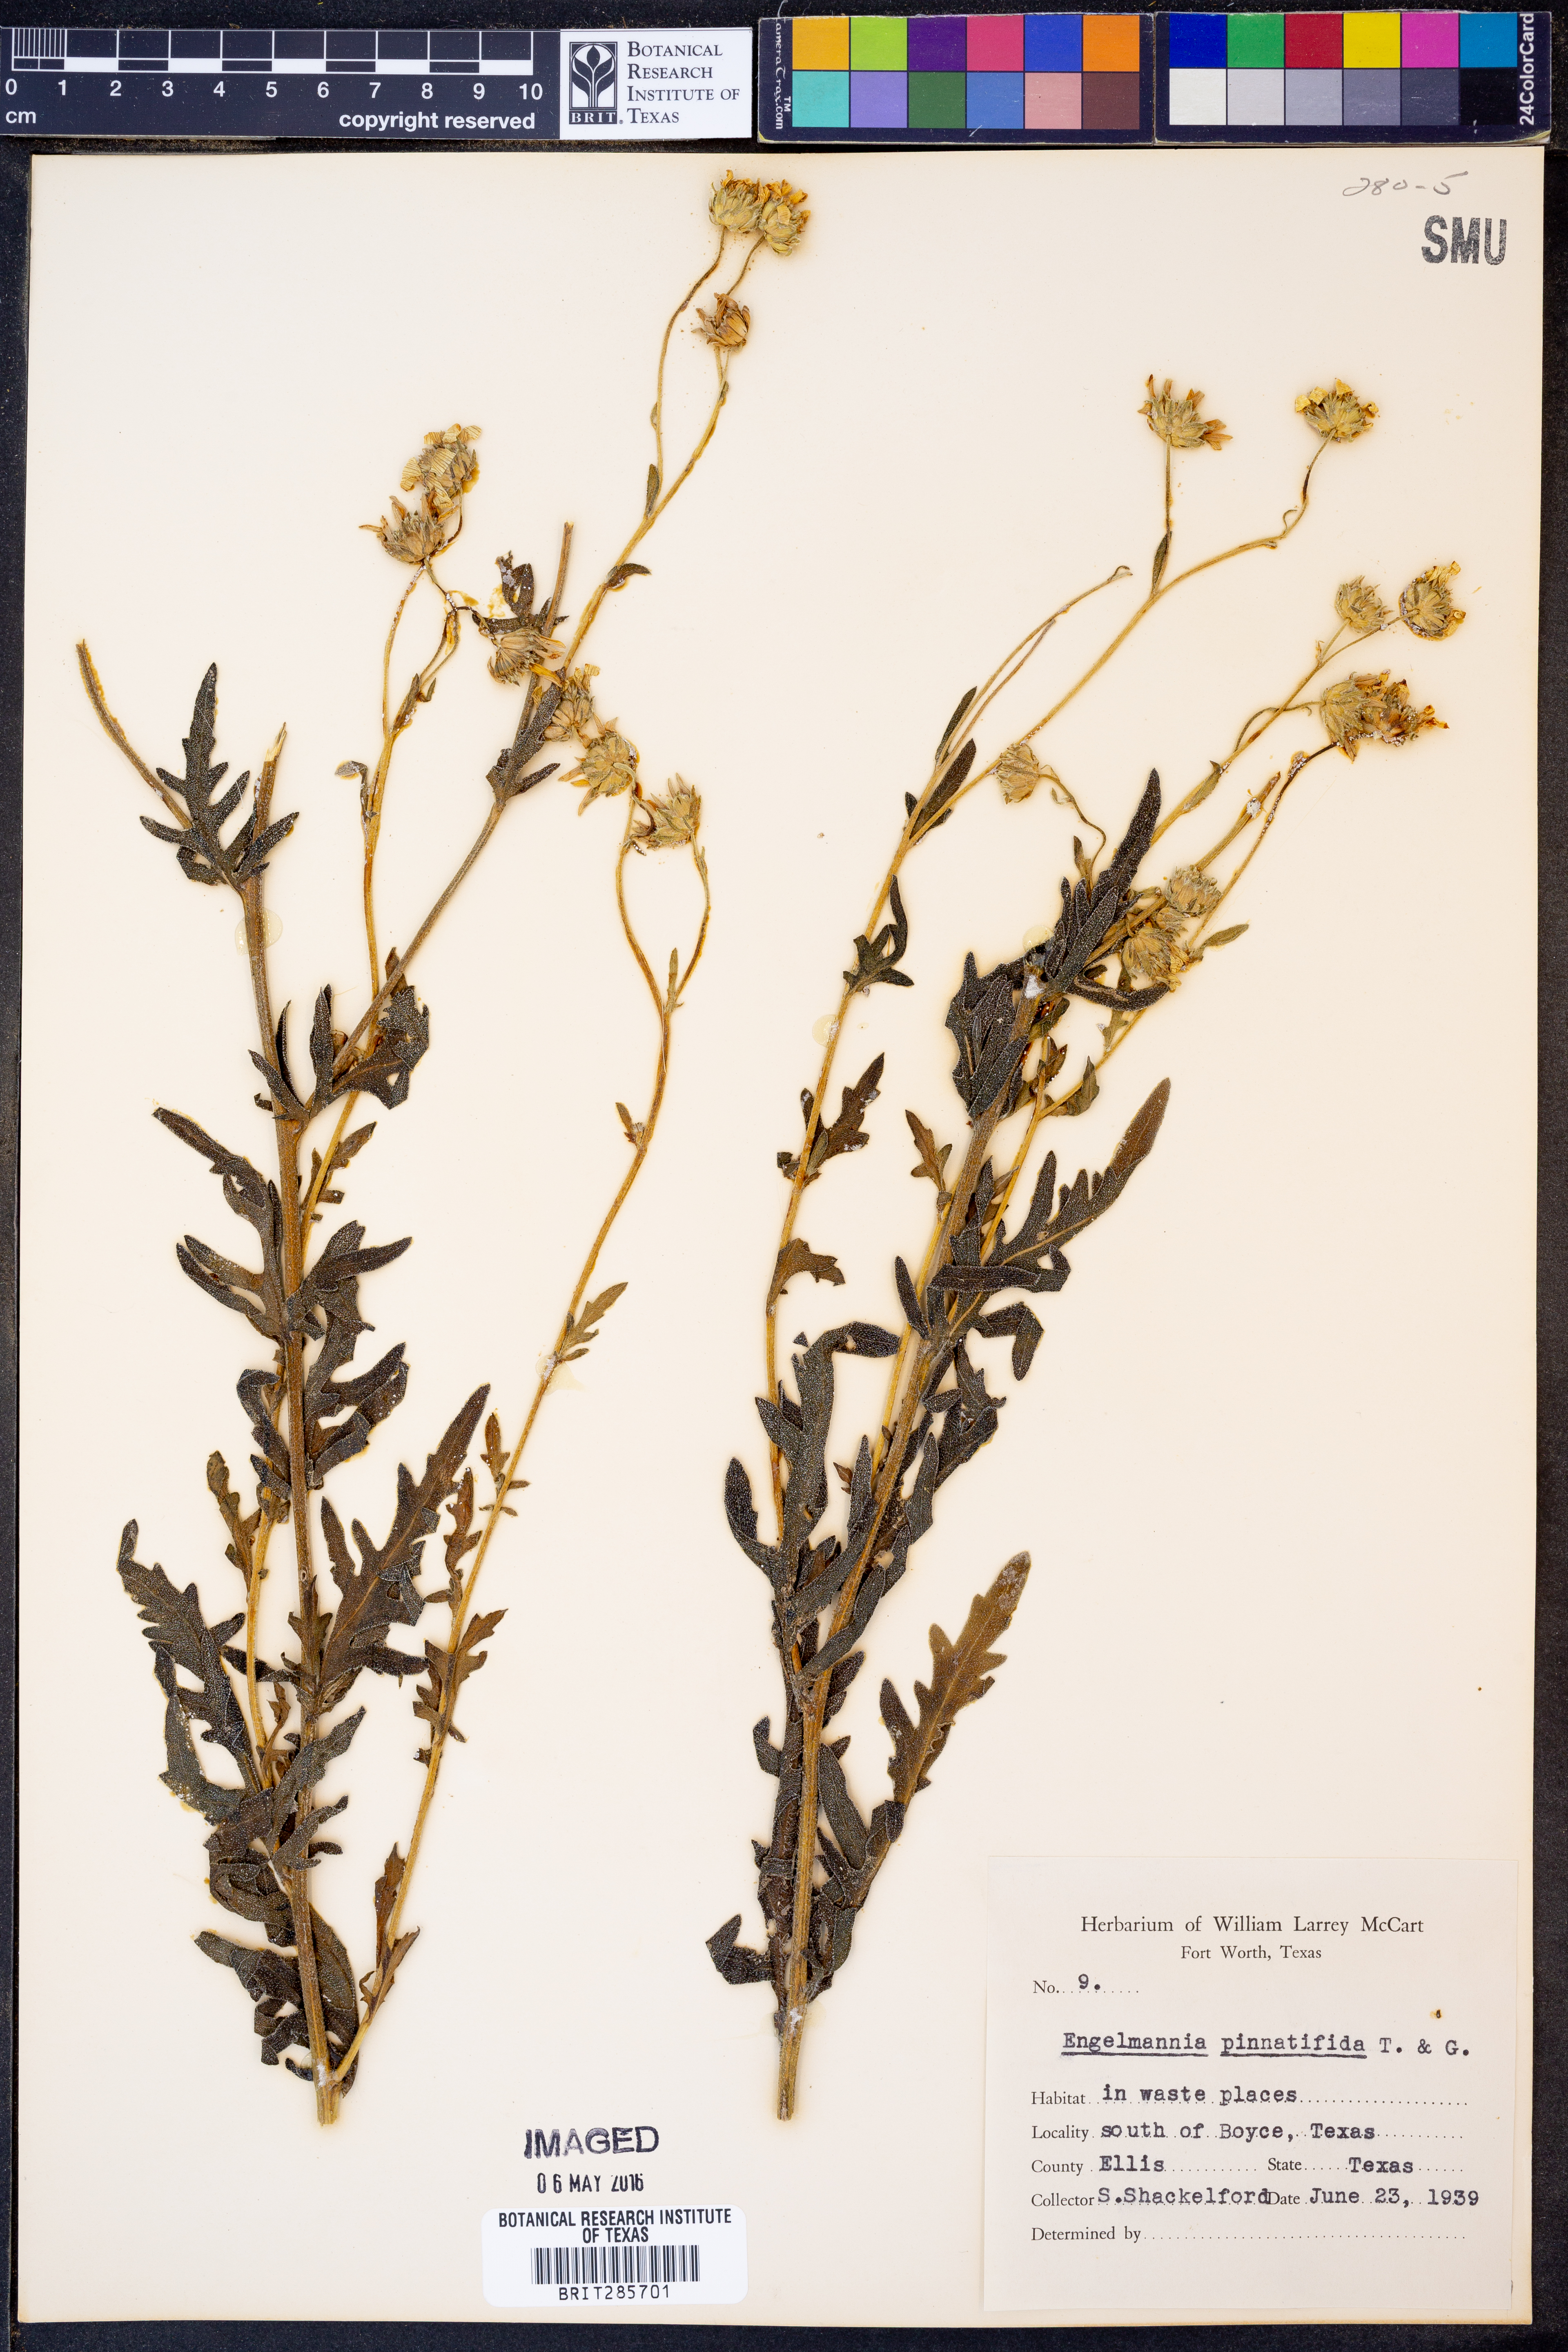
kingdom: Plantae
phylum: Tracheophyta
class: Magnoliopsida
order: Asterales
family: Asteraceae
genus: Engelmannia
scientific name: Engelmannia peristenia
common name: Engelmann's daisy
